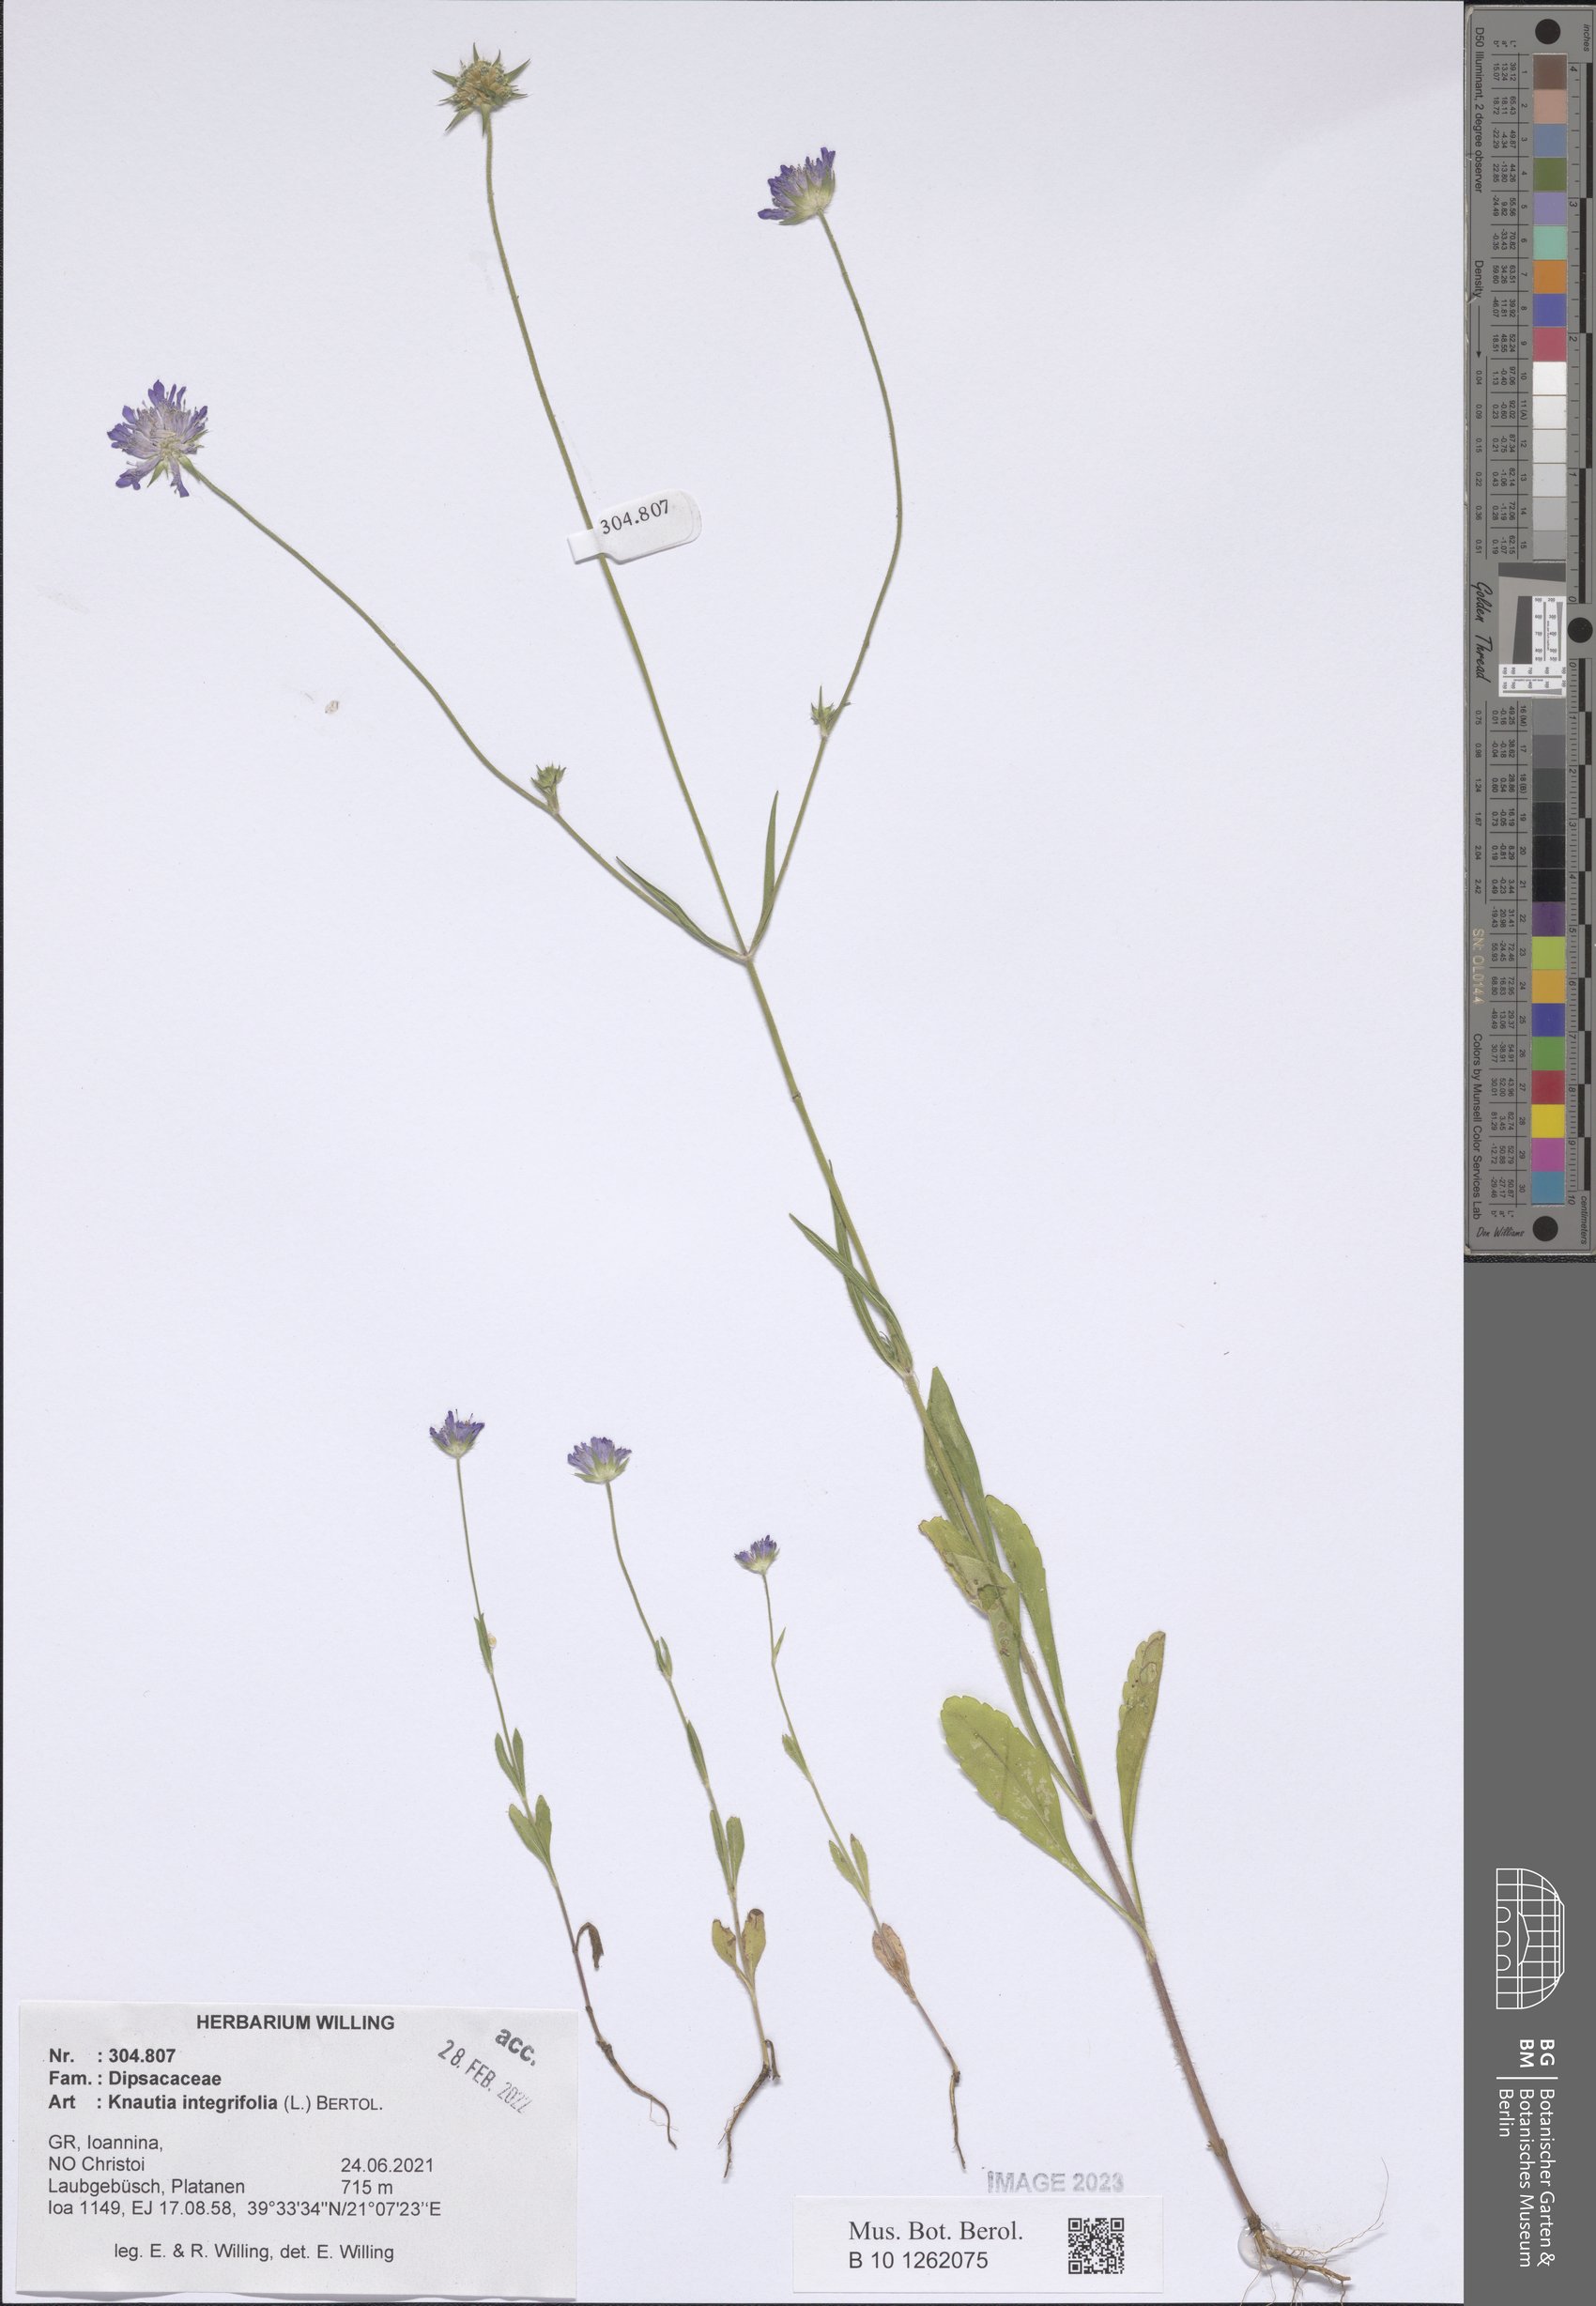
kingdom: Plantae
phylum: Tracheophyta
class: Magnoliopsida
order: Dipsacales
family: Caprifoliaceae
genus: Knautia
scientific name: Knautia integrifolia
